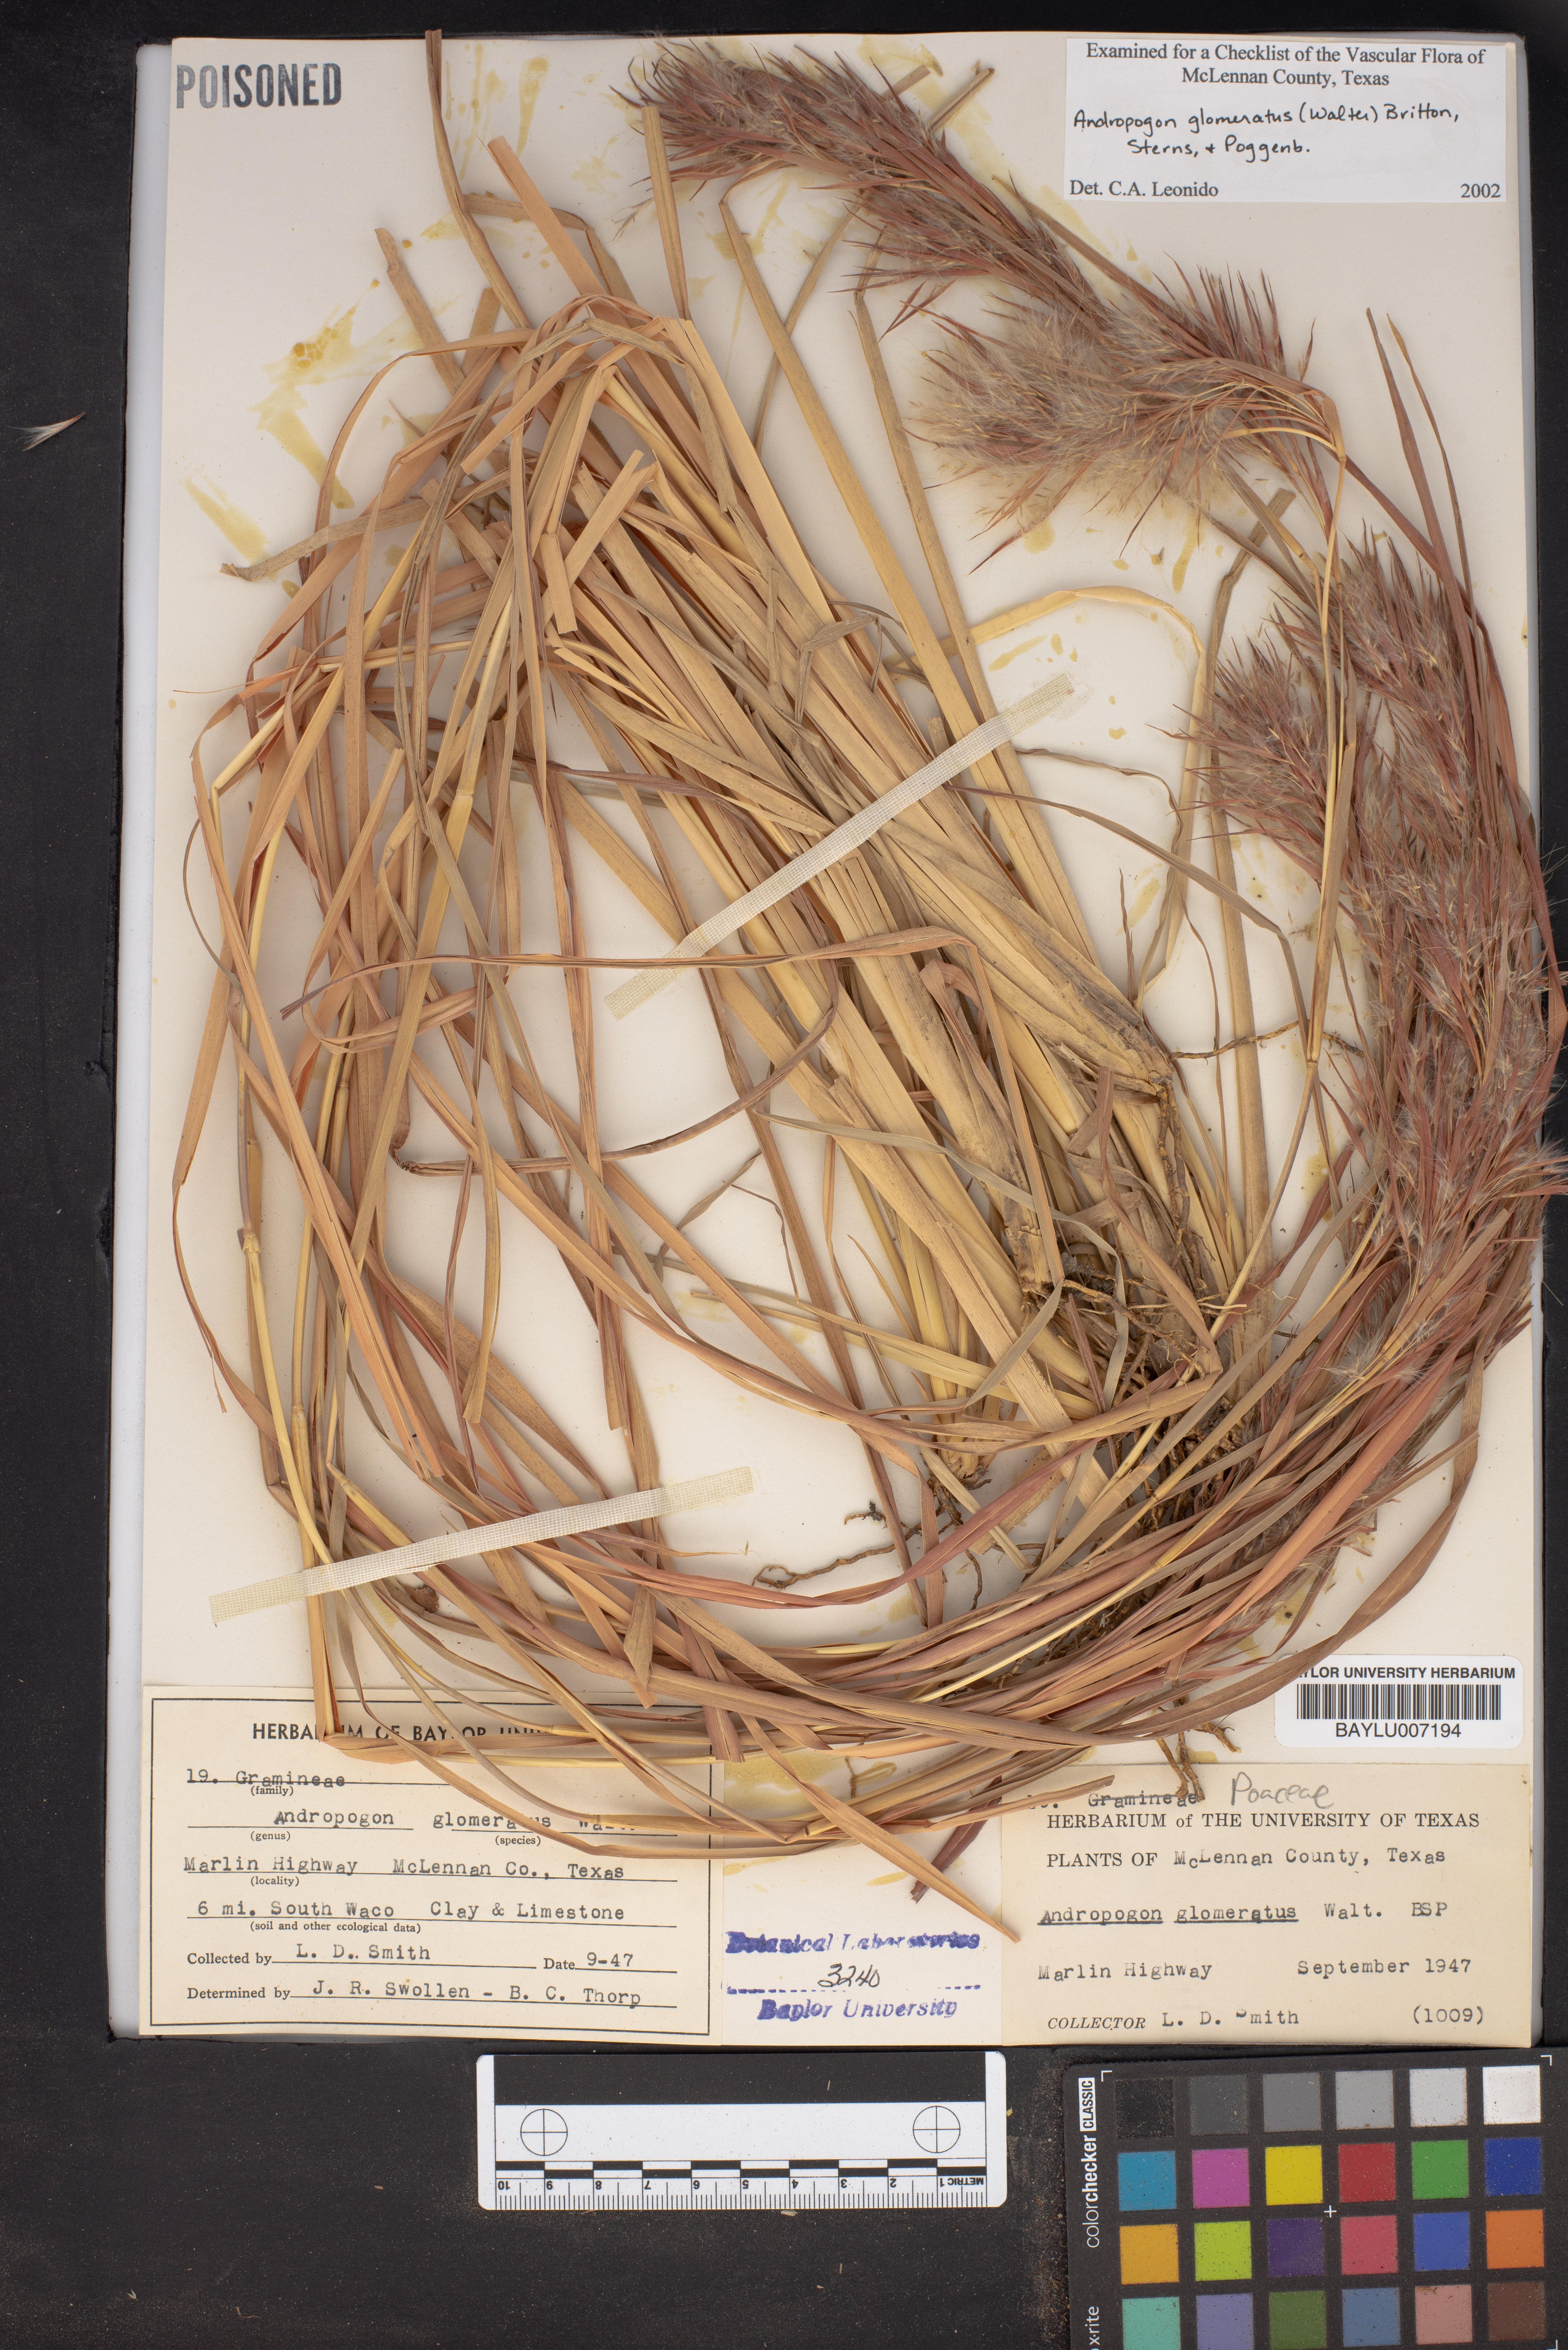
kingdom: Plantae
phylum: Tracheophyta
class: Liliopsida
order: Poales
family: Poaceae
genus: Andropogon
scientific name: Andropogon glomeratus
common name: Bushy beard grass
